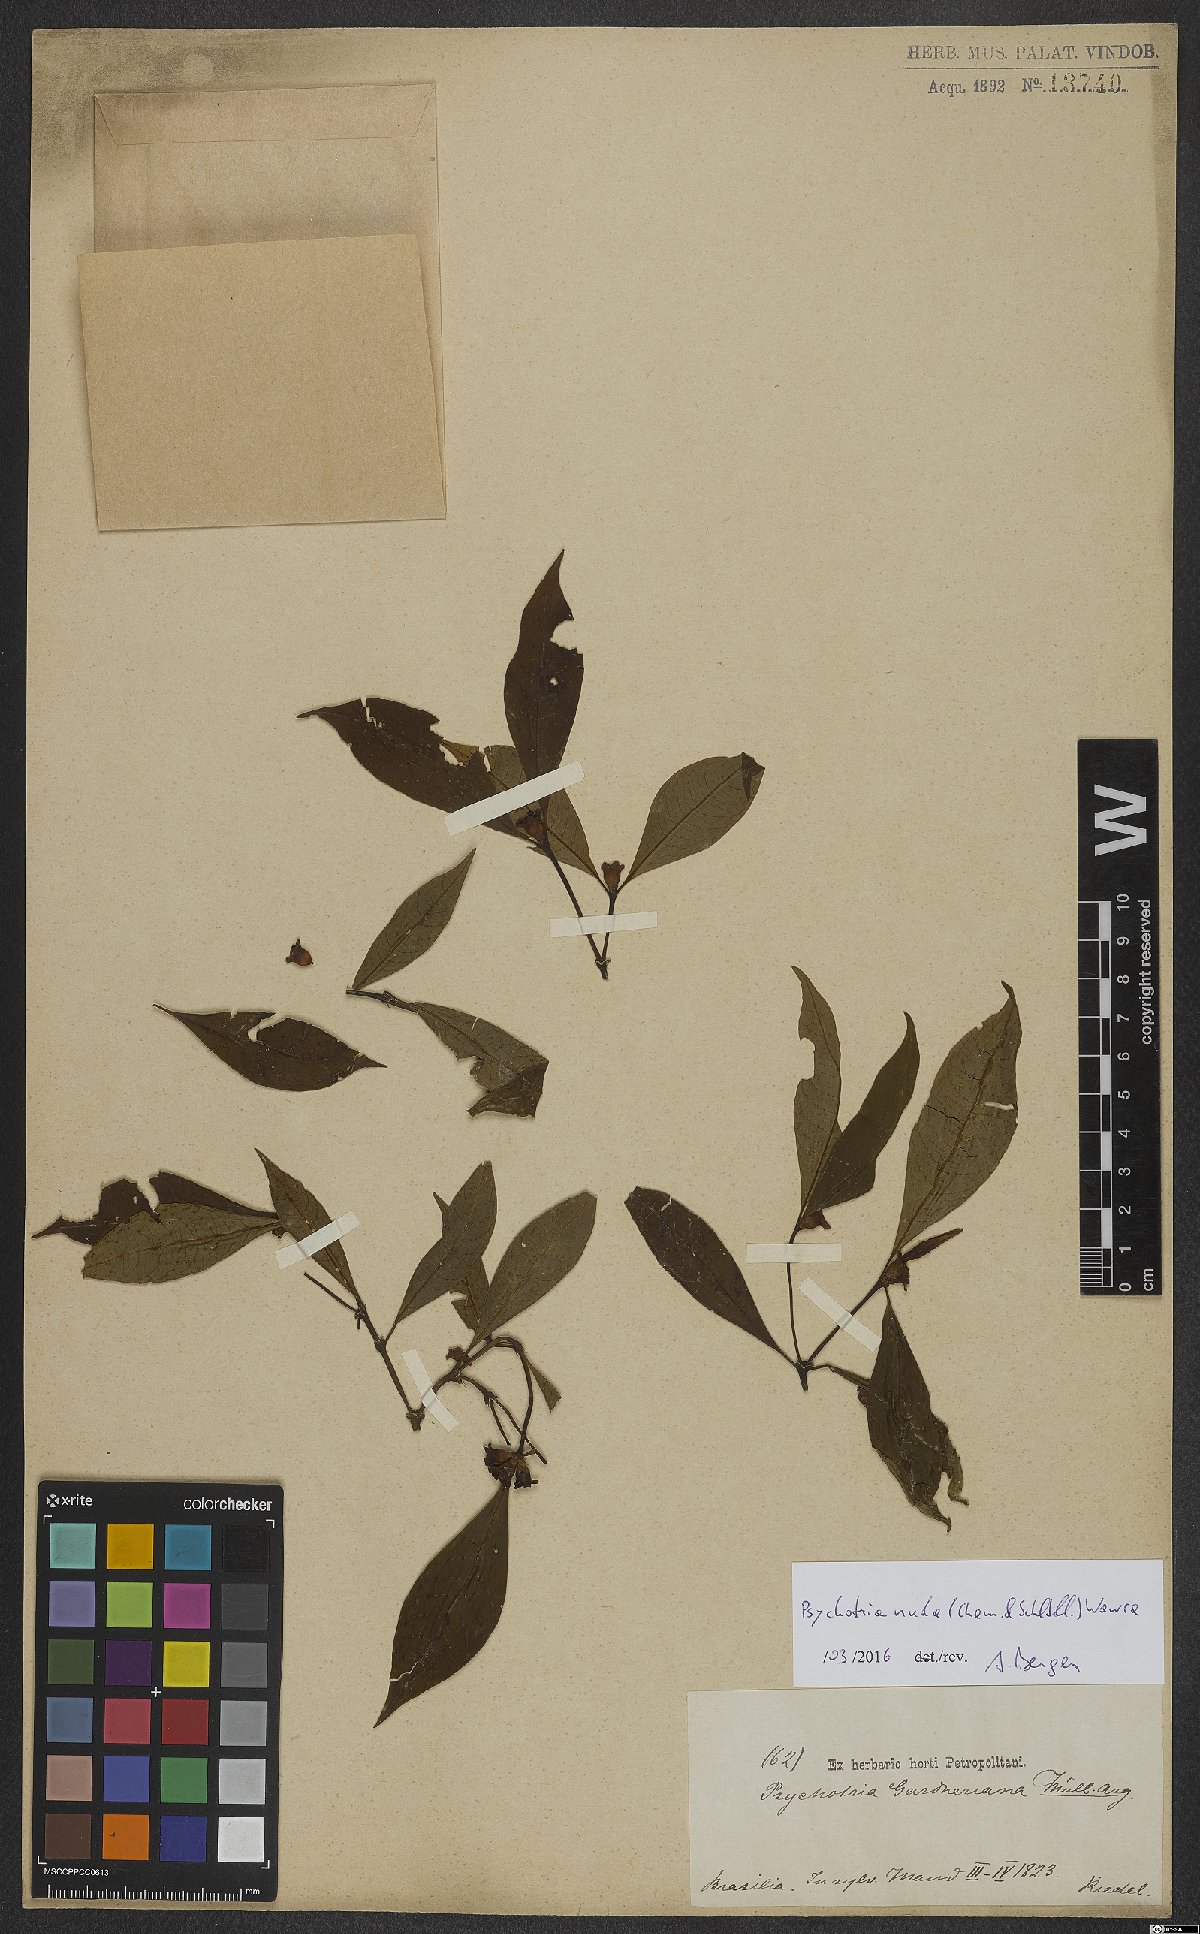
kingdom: Plantae
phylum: Tracheophyta
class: Magnoliopsida
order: Gentianales
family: Rubiaceae
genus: Psychotria
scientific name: Psychotria nuda
